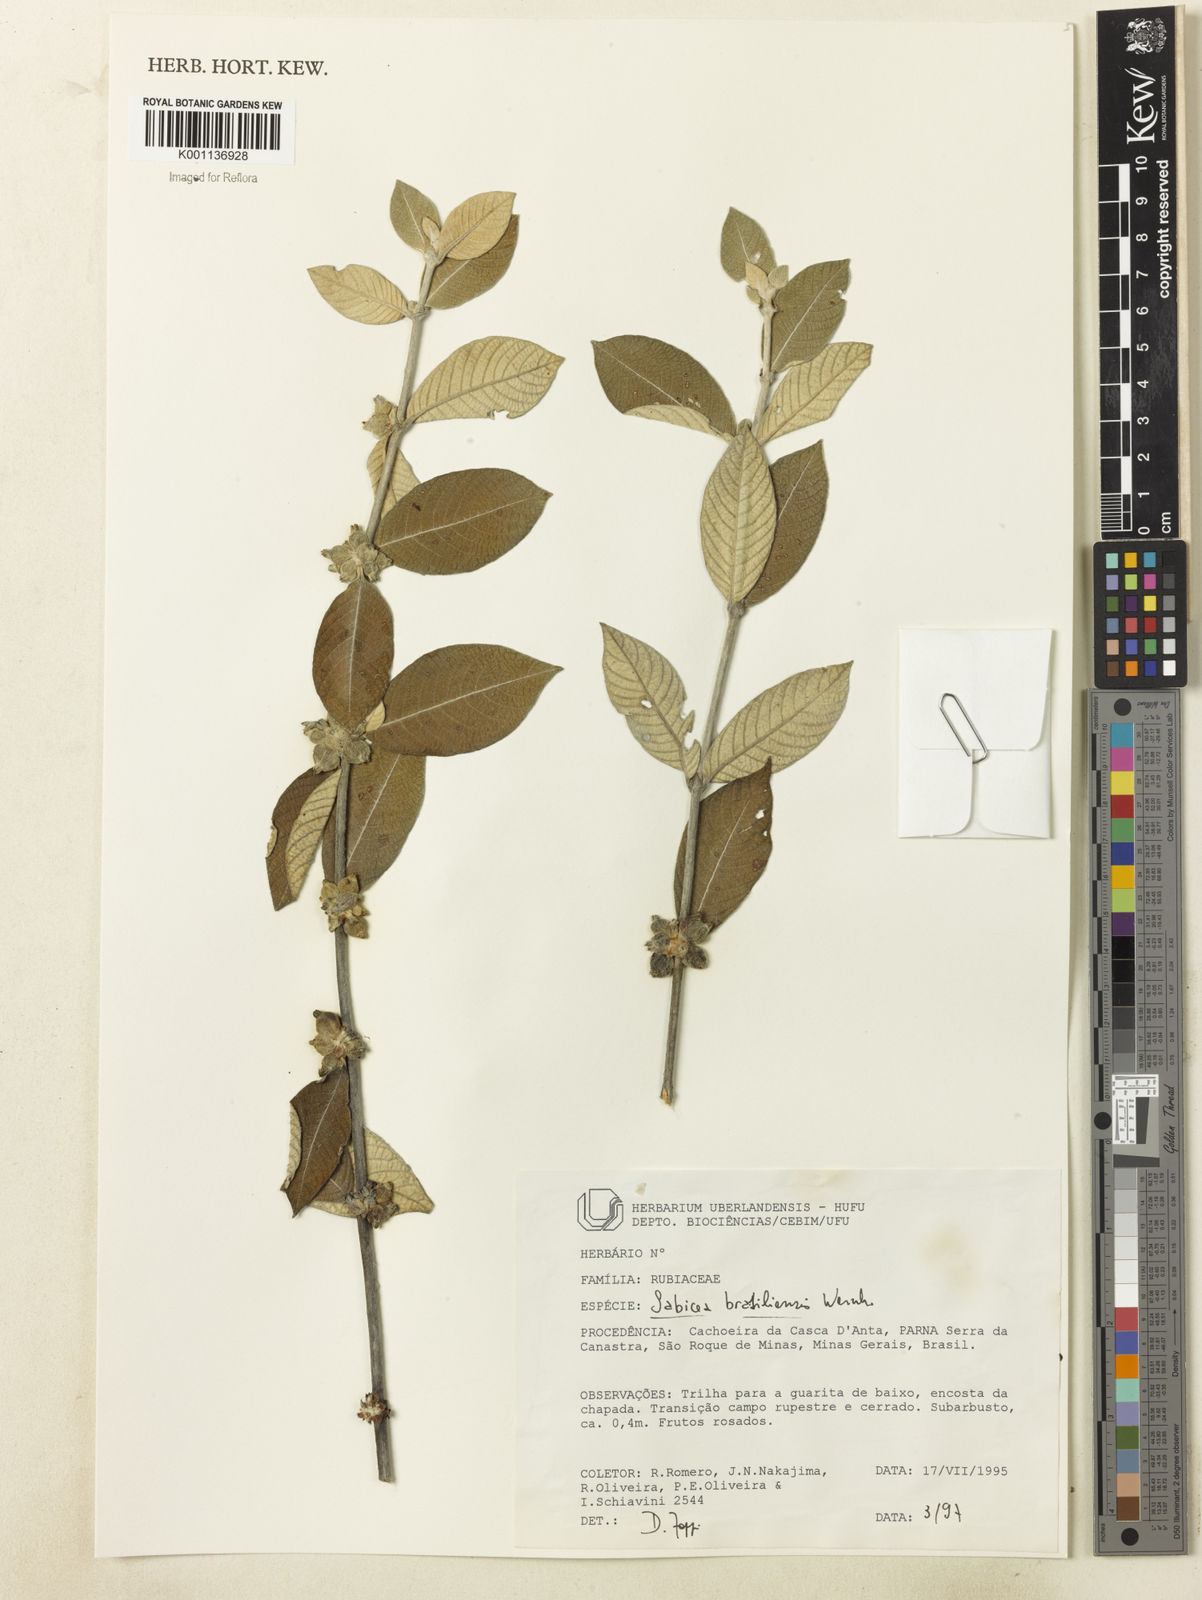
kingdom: Plantae
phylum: Tracheophyta
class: Magnoliopsida
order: Gentianales
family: Rubiaceae
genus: Sabicea
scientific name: Sabicea brasiliensis
